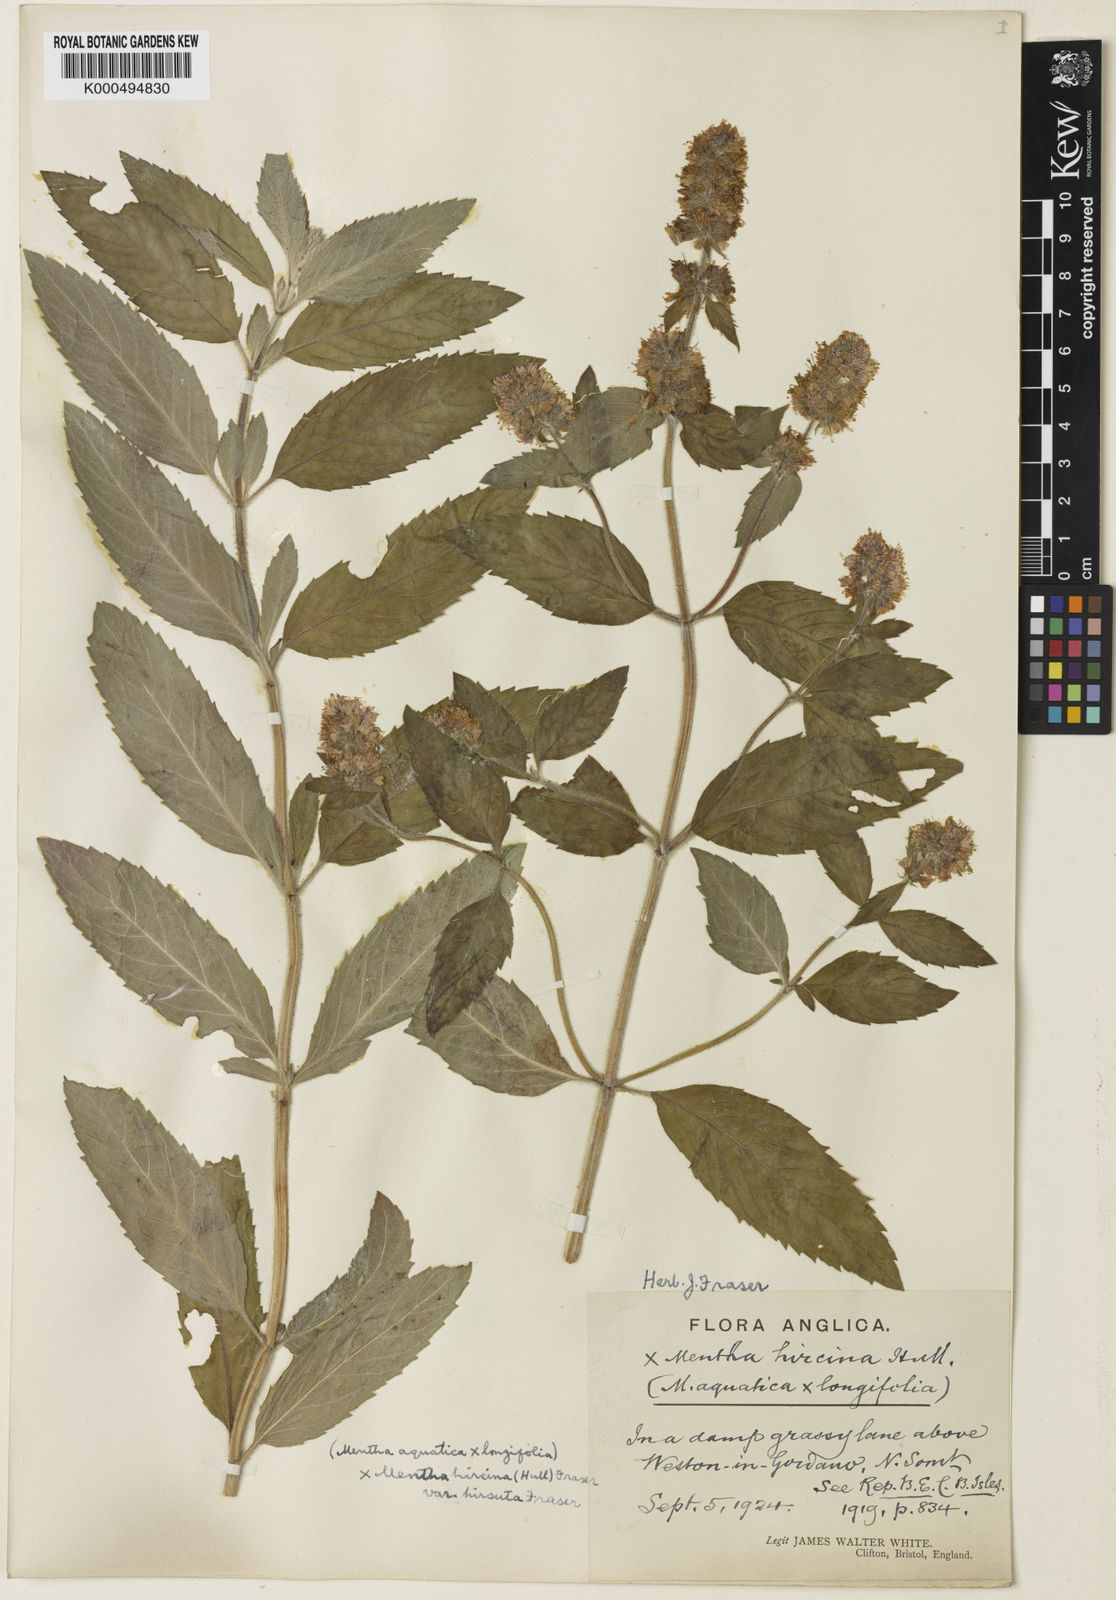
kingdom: Plantae
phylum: Tracheophyta
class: Magnoliopsida
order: Lamiales
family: Lamiaceae
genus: Mentha
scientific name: Mentha piperita
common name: Peppermint
